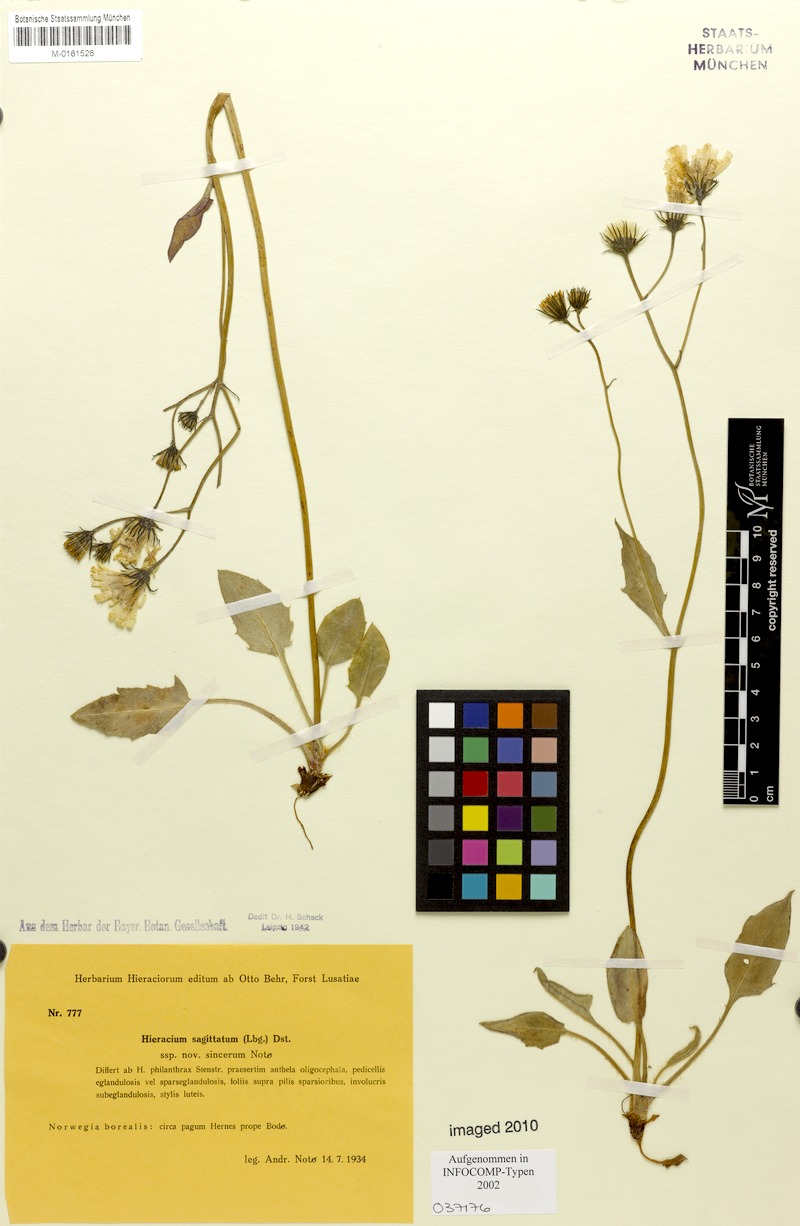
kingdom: Plantae
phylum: Tracheophyta
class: Magnoliopsida
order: Asterales
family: Asteraceae
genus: Hieracium
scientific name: Hieracium fuscocinereum
